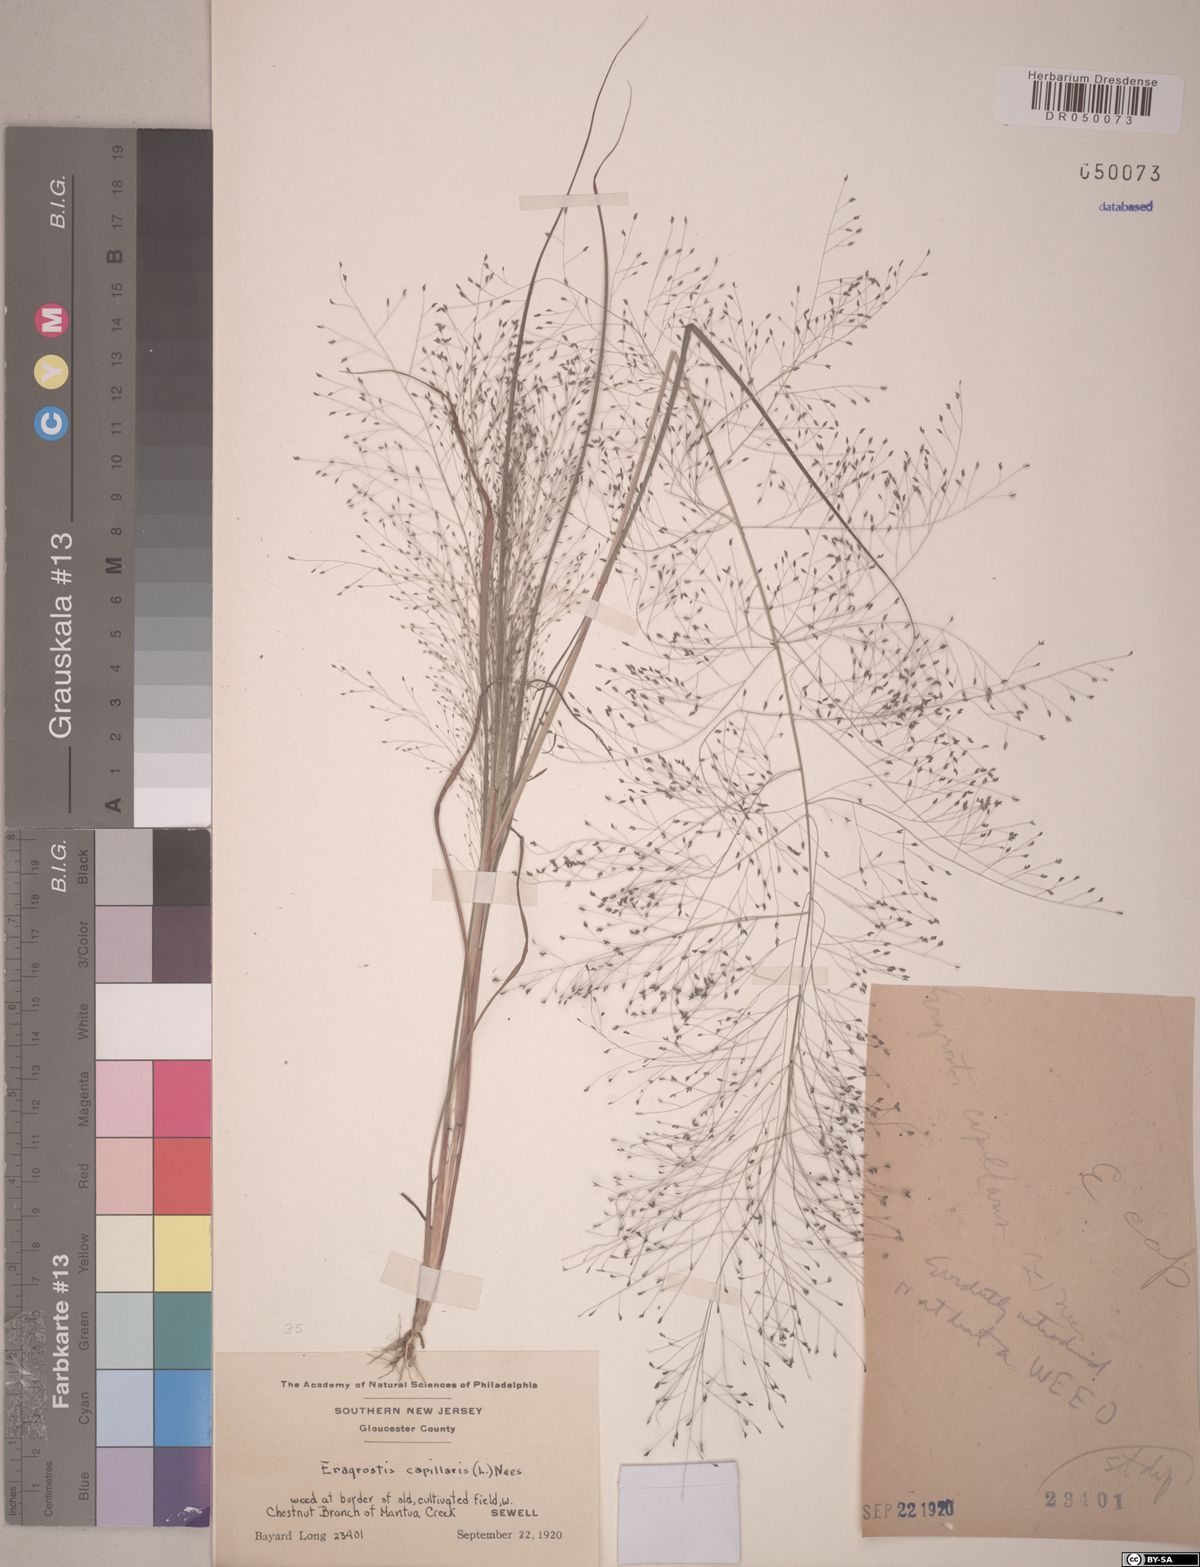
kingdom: Plantae
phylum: Tracheophyta
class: Liliopsida
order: Poales
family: Poaceae
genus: Eragrostis
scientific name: Eragrostis capillaris
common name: Hair-like lovegrass
